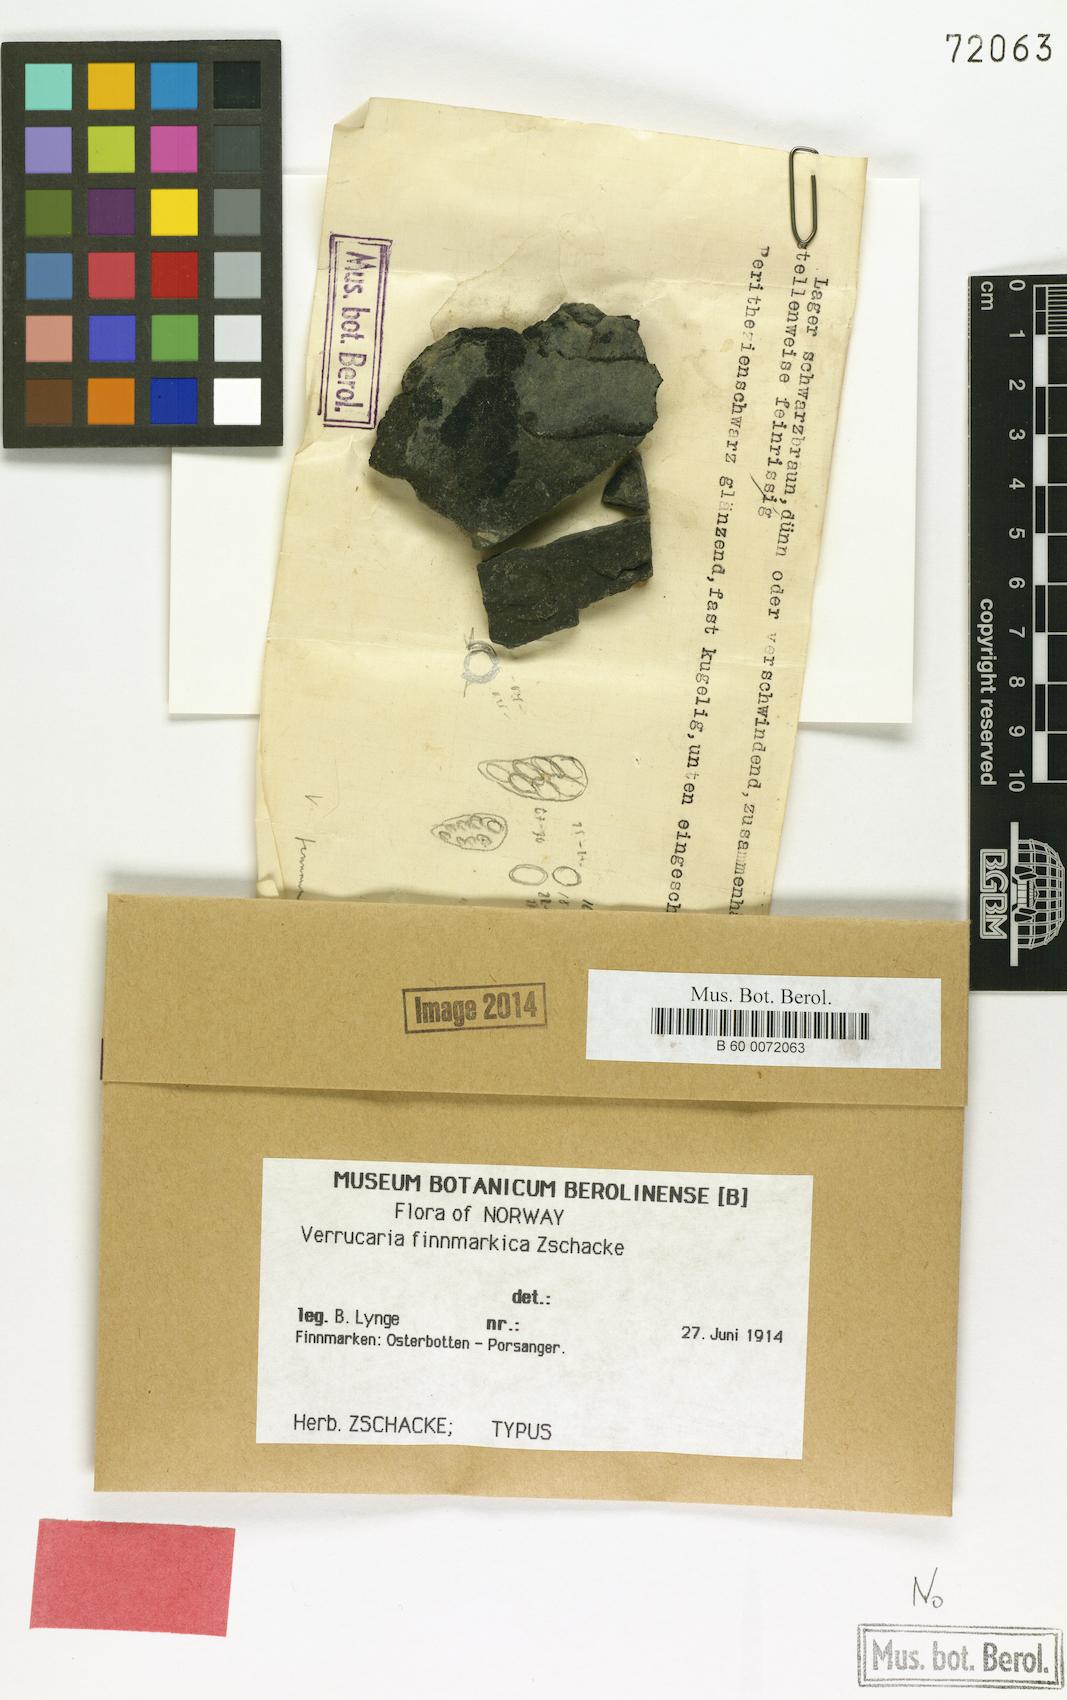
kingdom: Fungi
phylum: Ascomycota
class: Eurotiomycetes
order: Verrucariales
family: Verrucariaceae
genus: Hydropunctaria
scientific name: Hydropunctaria maura
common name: Tar lichen
